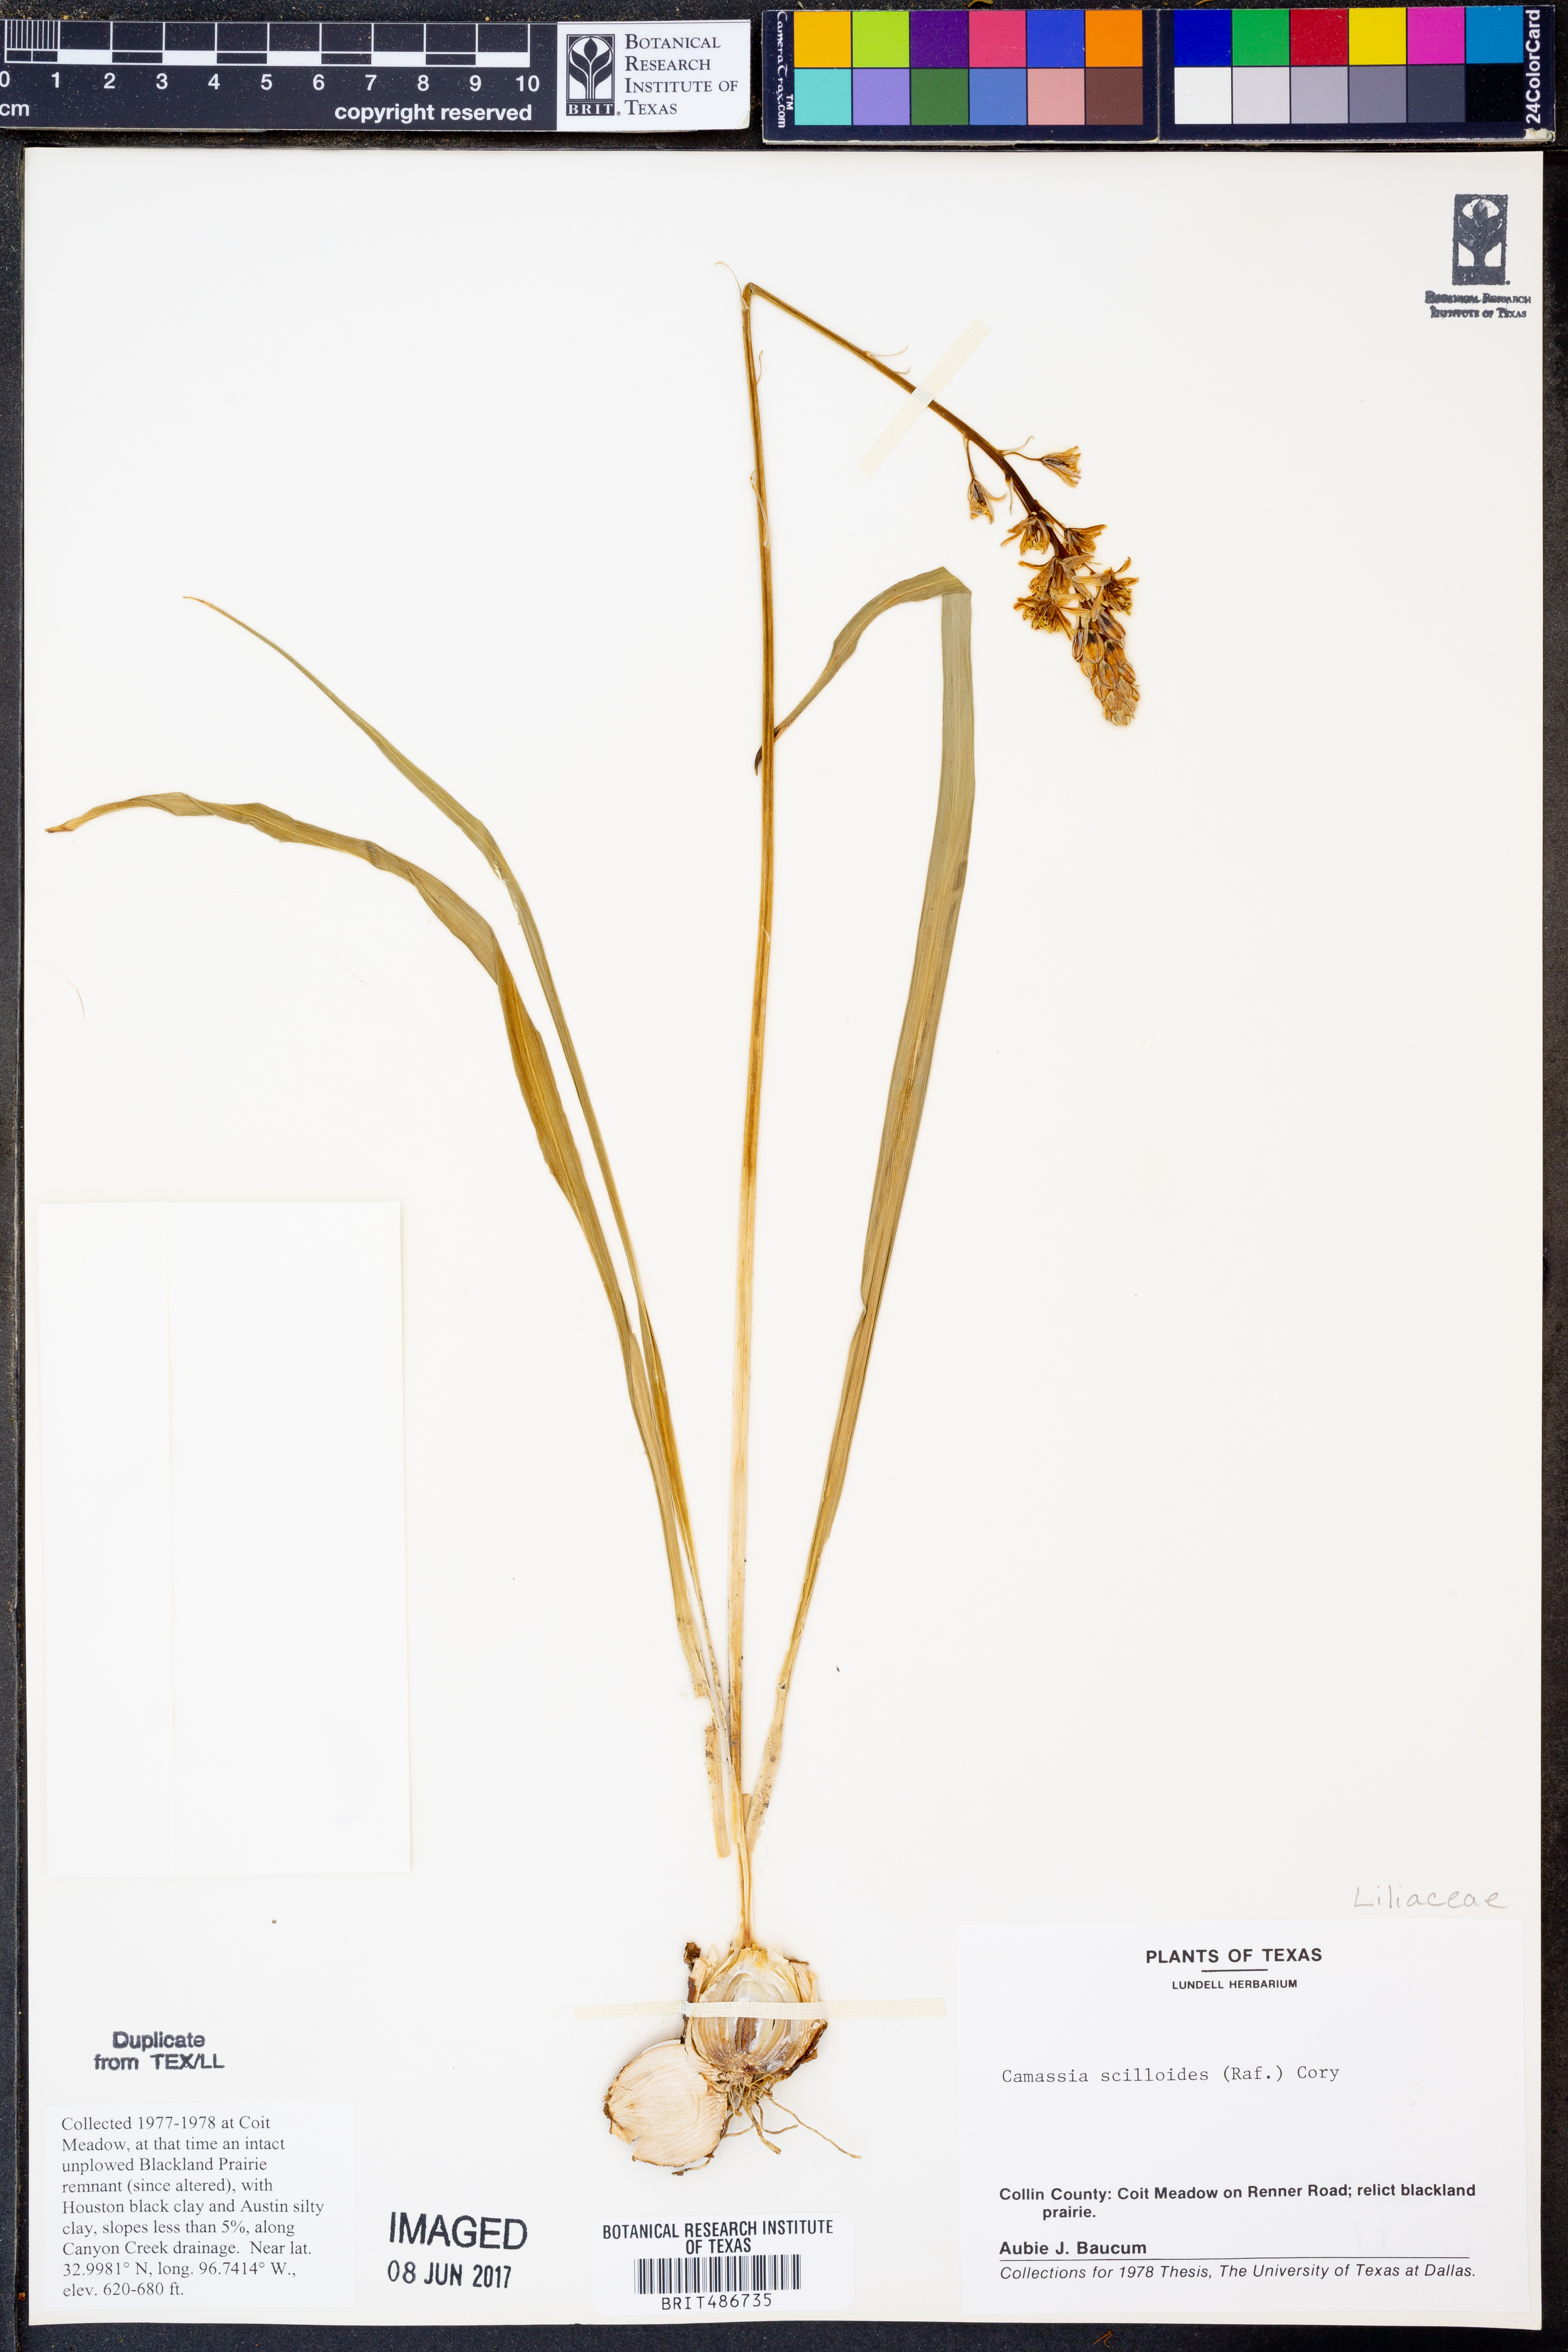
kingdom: Plantae
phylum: Tracheophyta
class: Liliopsida
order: Asparagales
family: Asparagaceae
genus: Camassia
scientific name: Camassia scilloides
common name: Wild hyacinth
